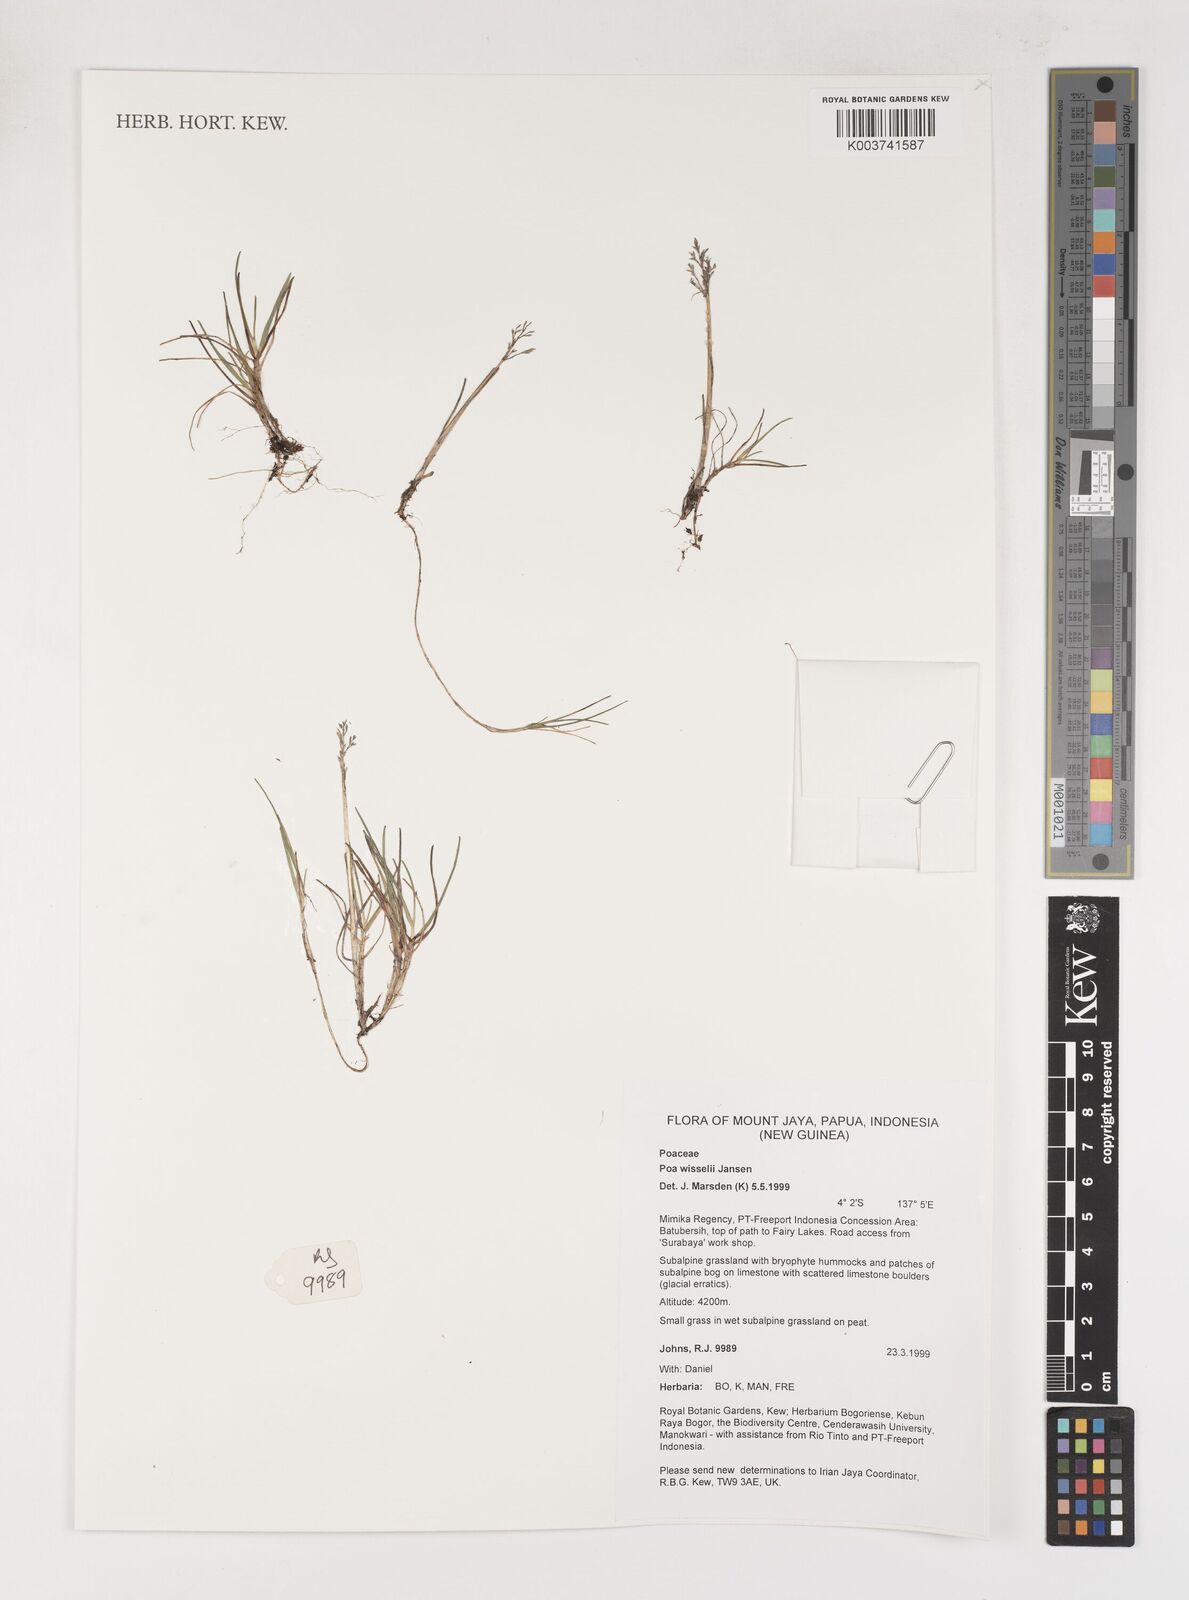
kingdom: Plantae
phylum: Tracheophyta
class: Liliopsida
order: Poales
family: Poaceae
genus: Poa
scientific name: Poa wisselii
